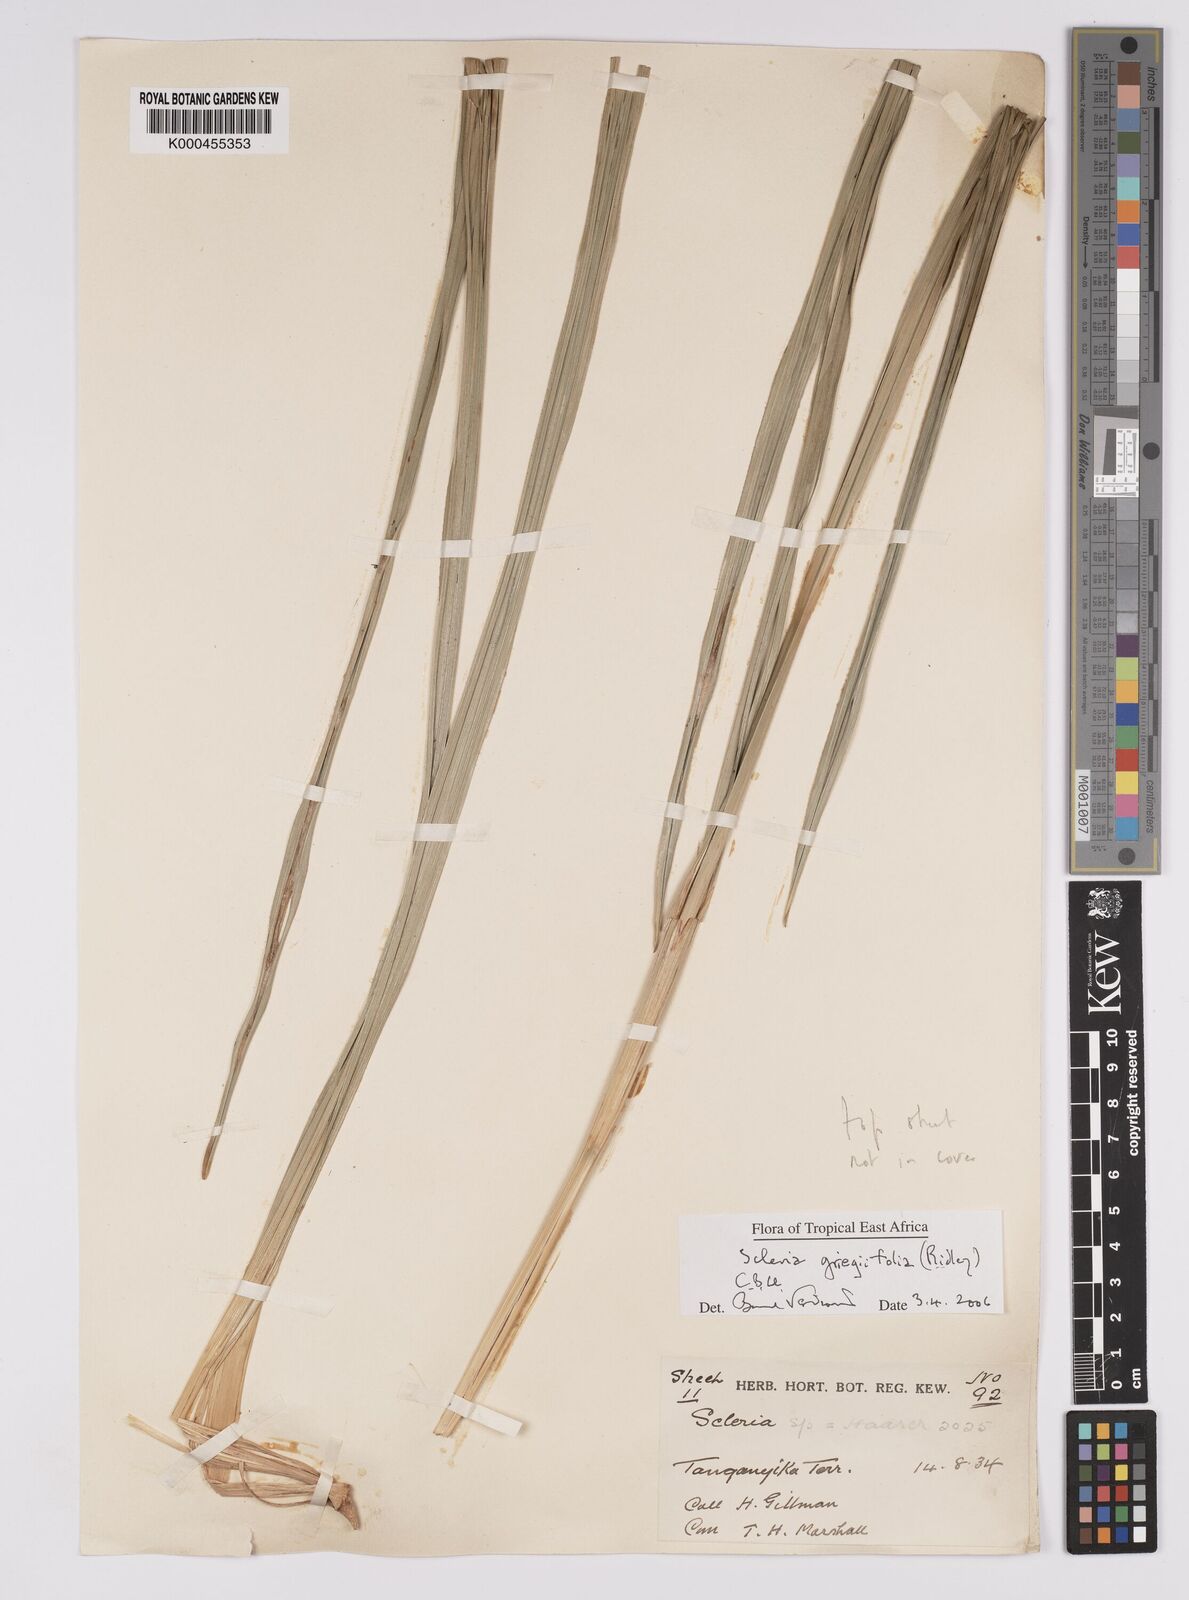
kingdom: Plantae
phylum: Tracheophyta
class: Liliopsida
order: Poales
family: Cyperaceae
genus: Scleria
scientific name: Scleria greigiifolia
